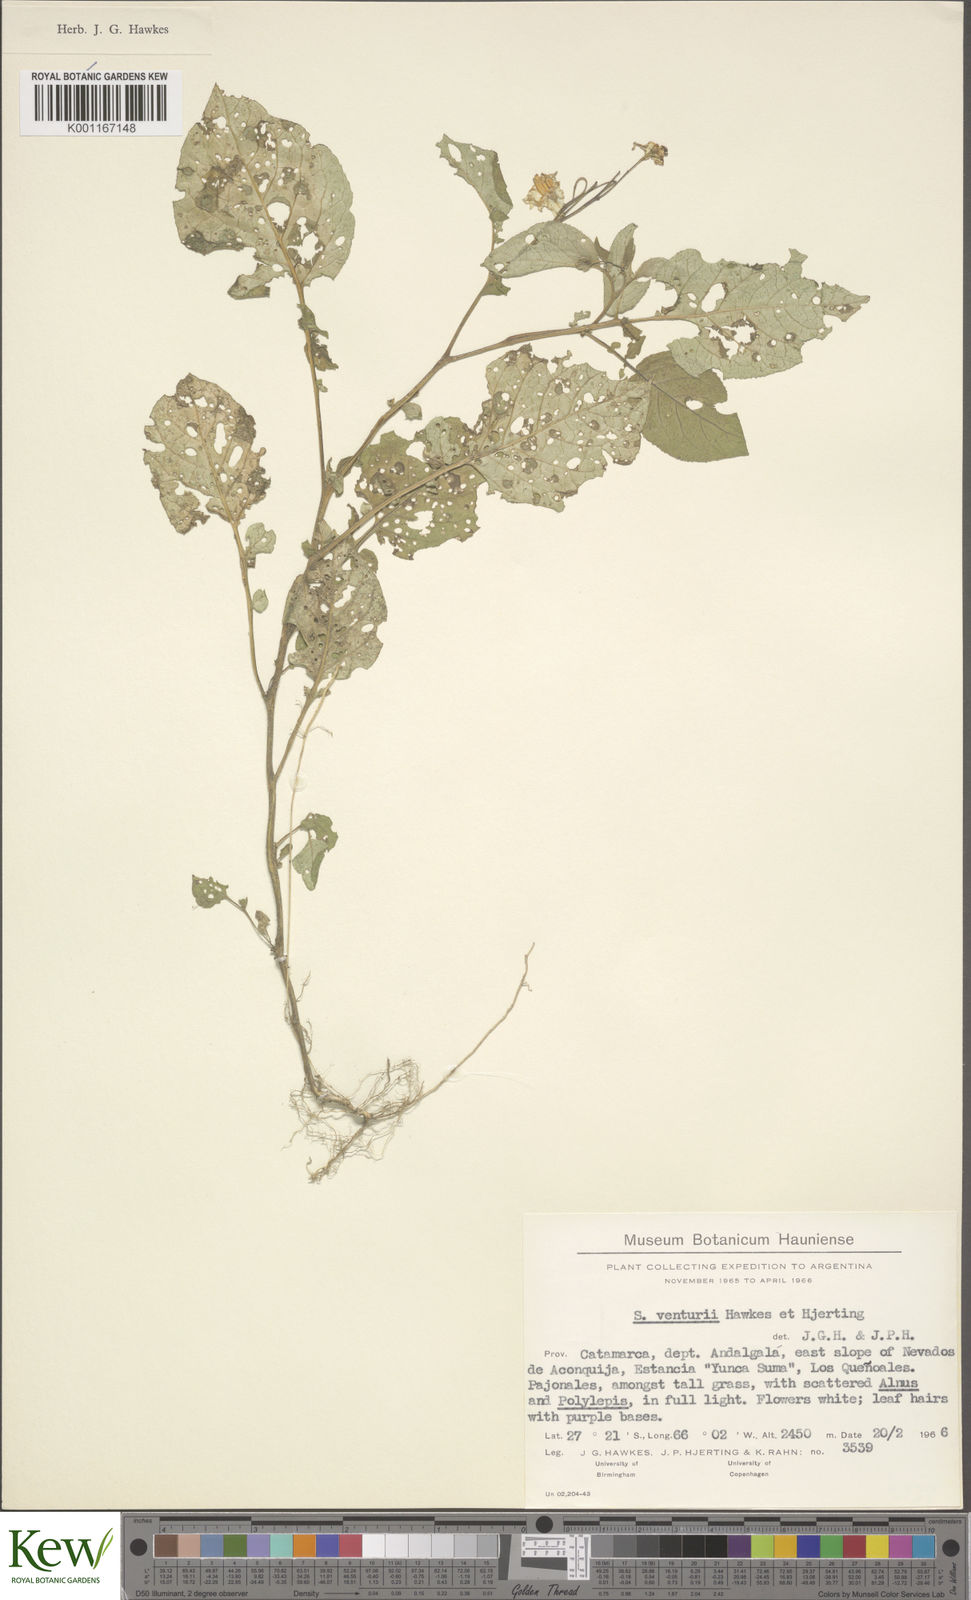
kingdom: Plantae
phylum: Tracheophyta
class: Magnoliopsida
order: Solanales
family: Solanaceae
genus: Solanum
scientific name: Solanum venturii
